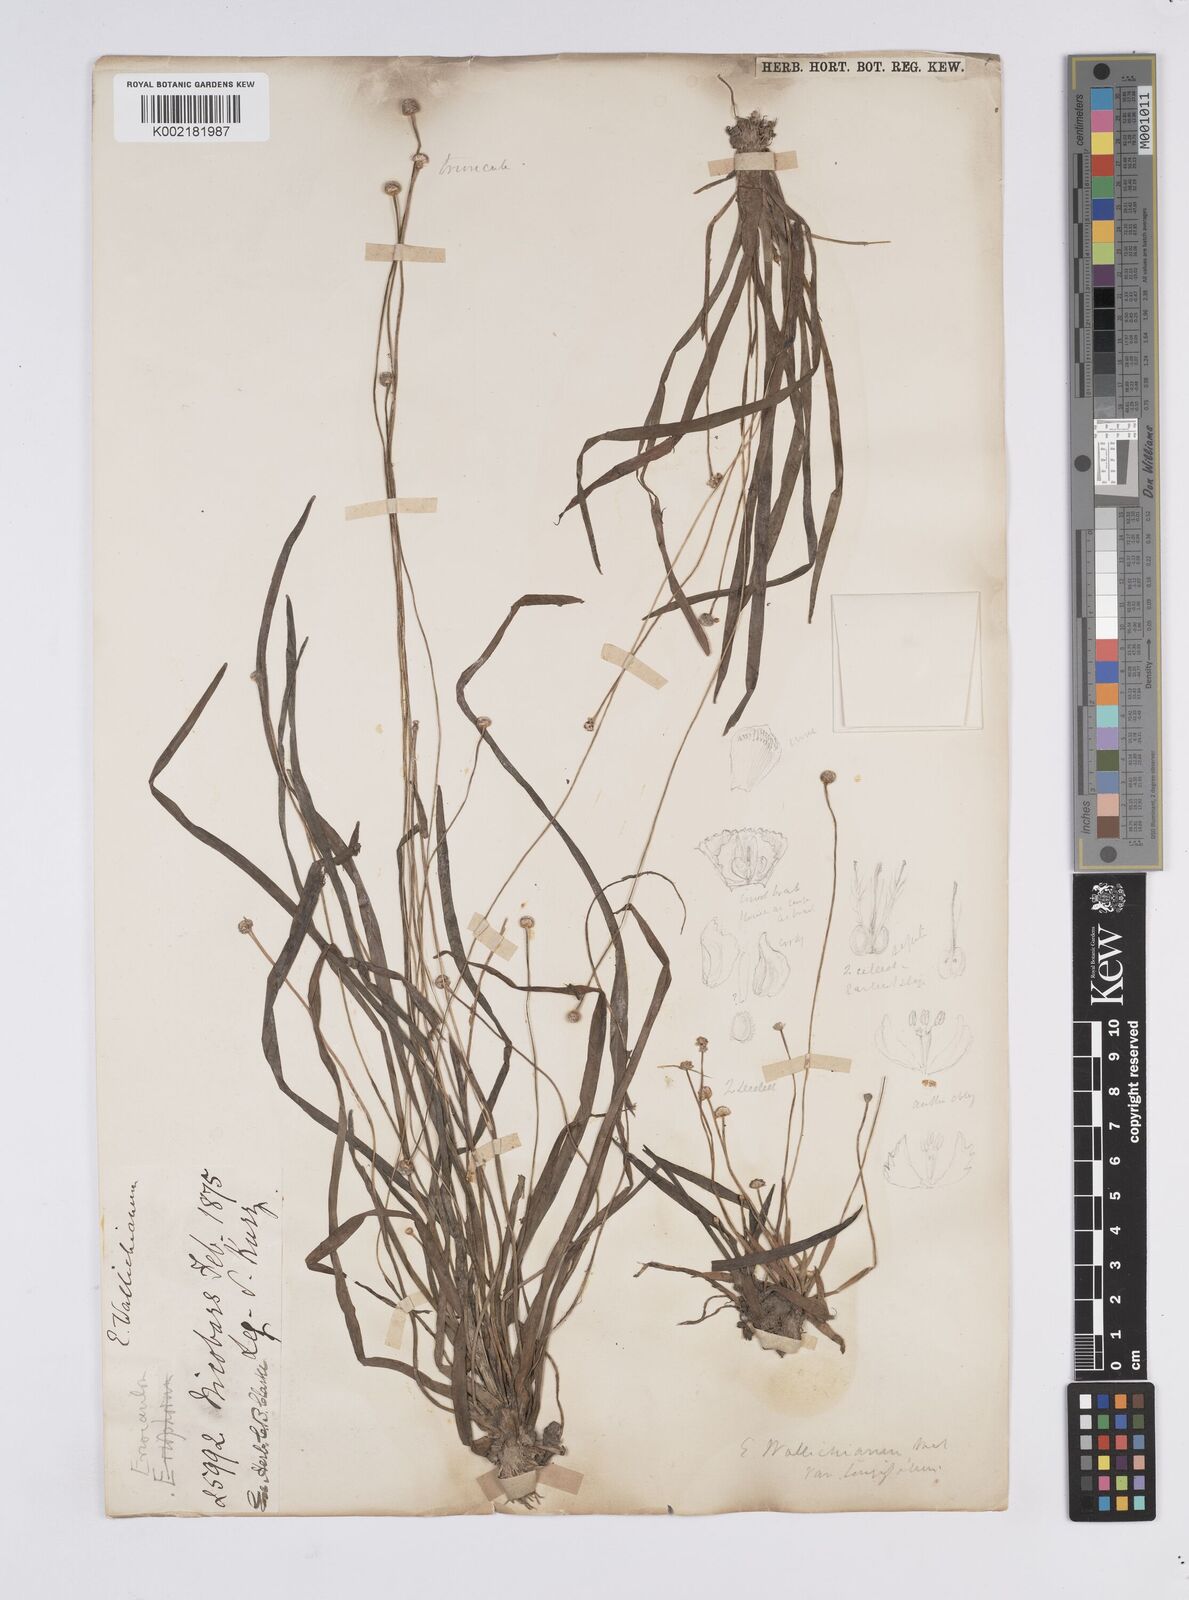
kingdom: Plantae
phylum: Tracheophyta
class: Liliopsida
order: Poales
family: Eriocaulaceae
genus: Eriocaulon
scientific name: Eriocaulon willdenovianum
